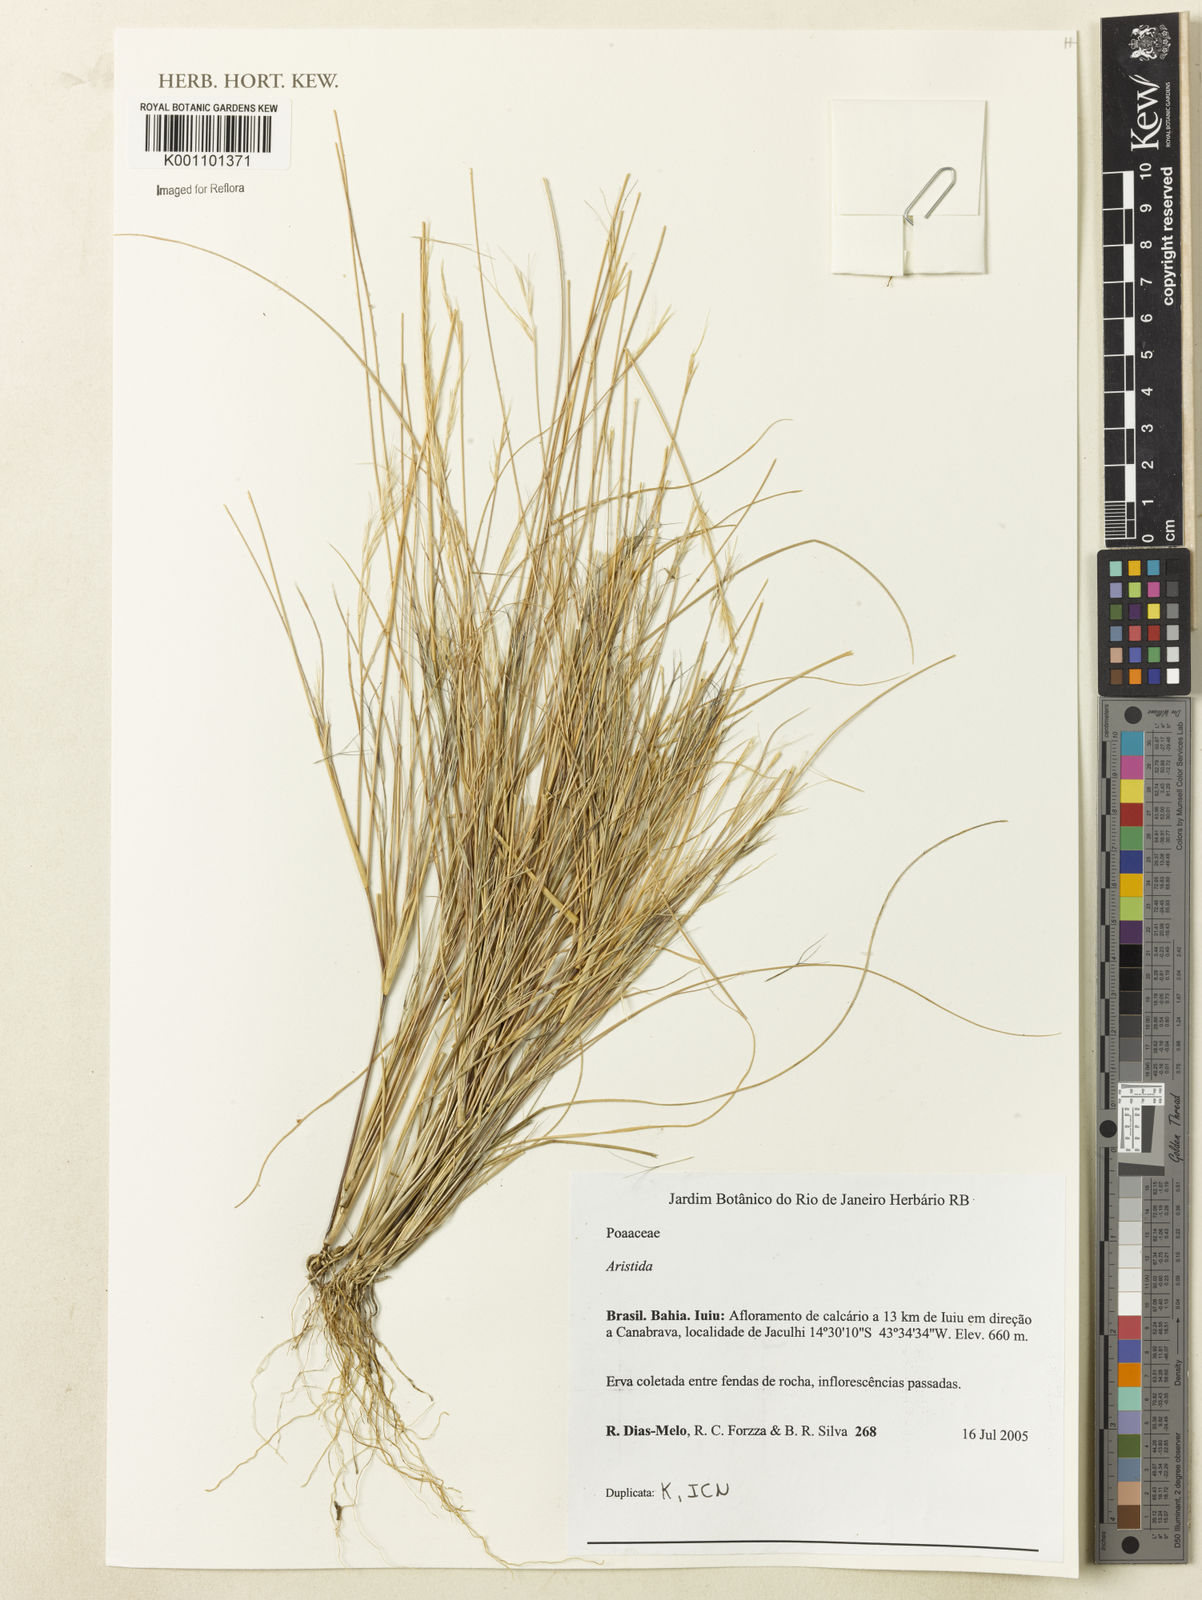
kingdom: Plantae
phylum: Tracheophyta
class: Liliopsida
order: Poales
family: Poaceae
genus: Aristida
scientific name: Aristida
